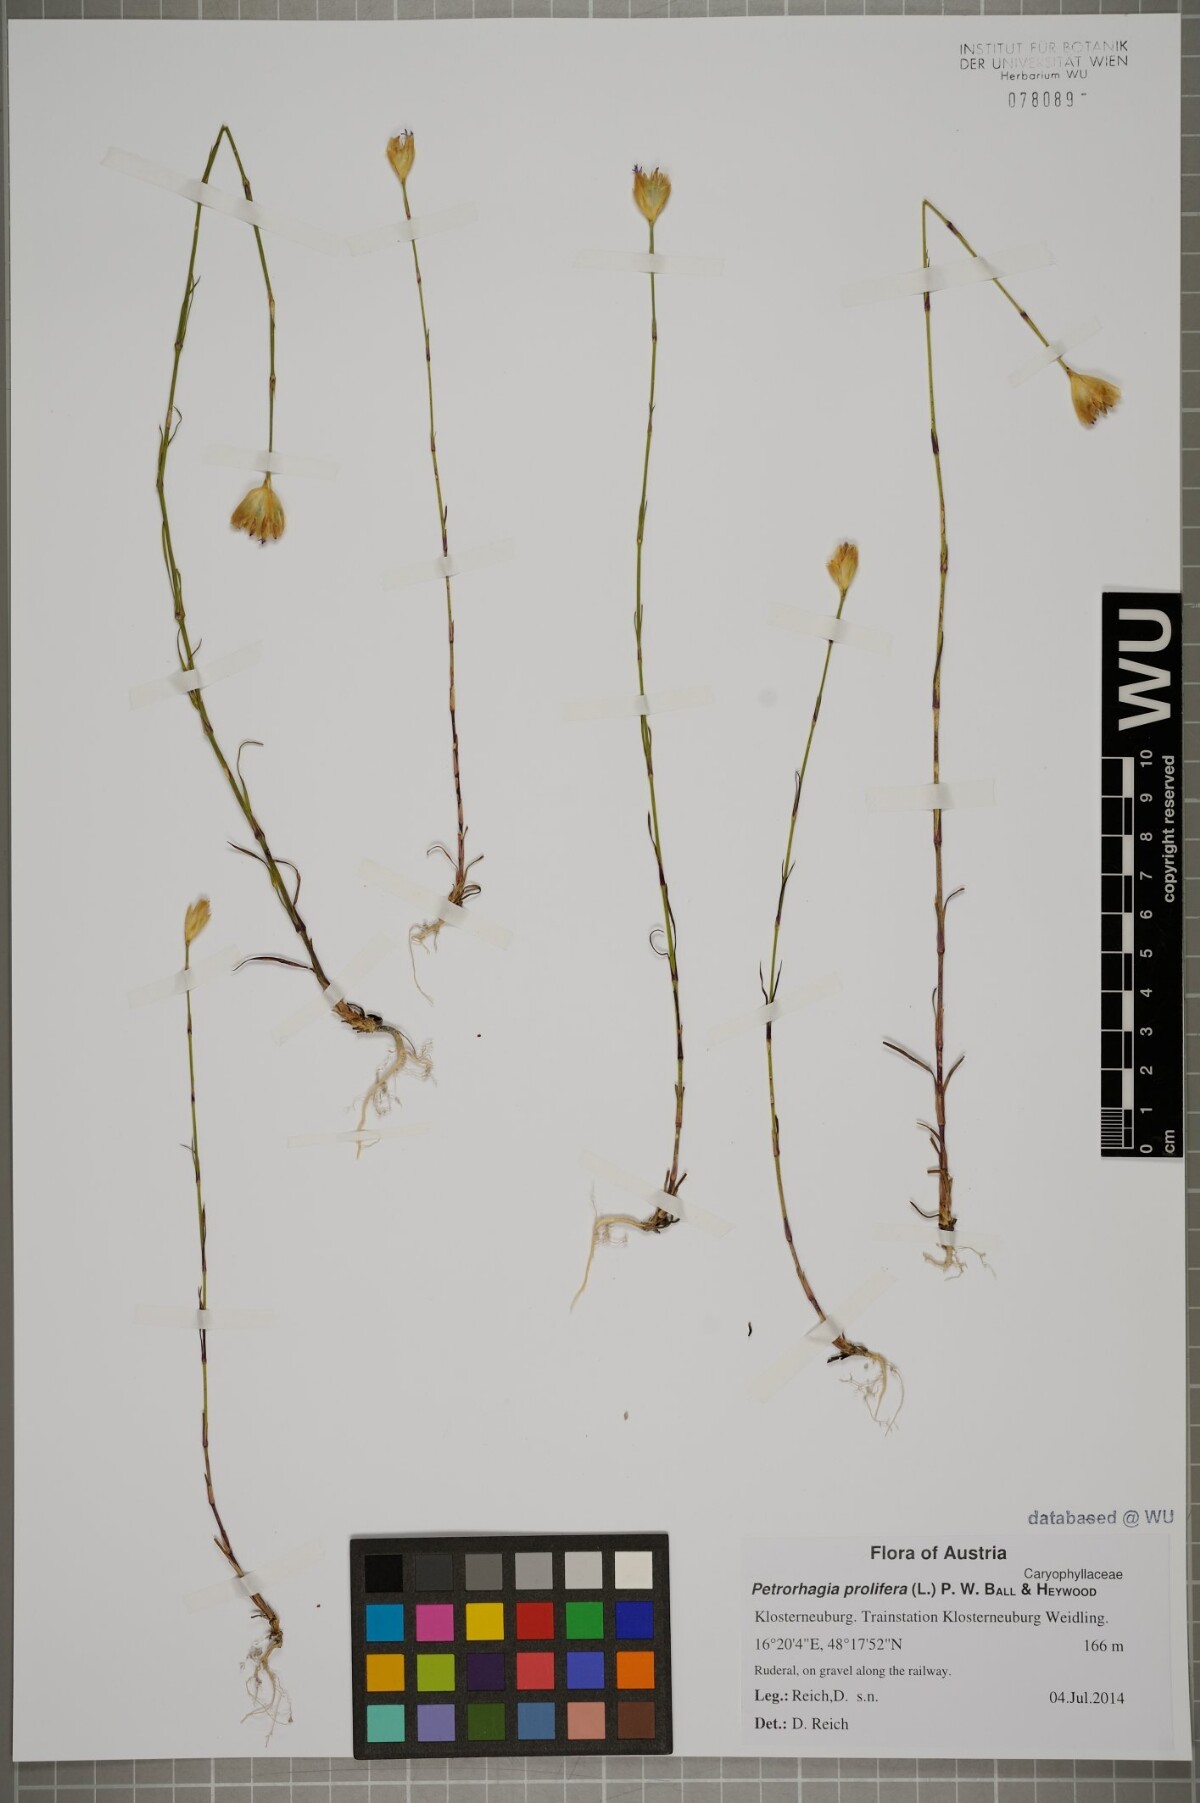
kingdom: Plantae
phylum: Tracheophyta
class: Magnoliopsida
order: Caryophyllales
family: Caryophyllaceae
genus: Petrorhagia
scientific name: Petrorhagia prolifera
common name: Proliferous pink
